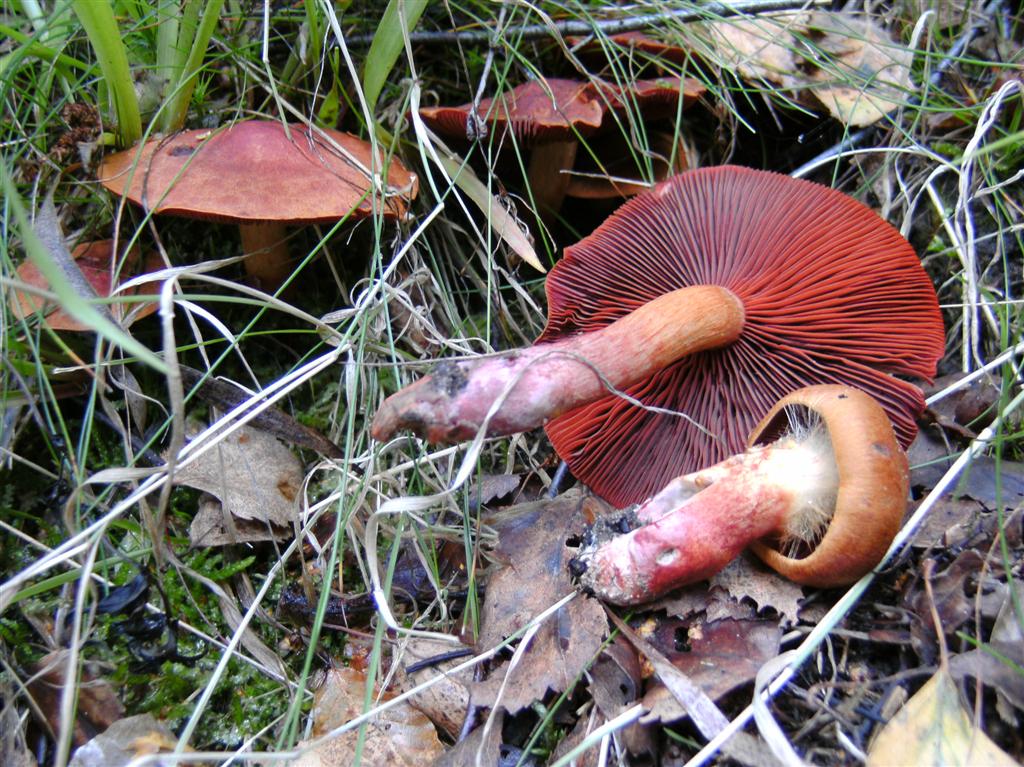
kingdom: Fungi
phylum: Basidiomycota
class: Agaricomycetes
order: Agaricales
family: Cortinariaceae
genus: Cortinarius
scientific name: Cortinarius purpureus
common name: brunrød slørhat
